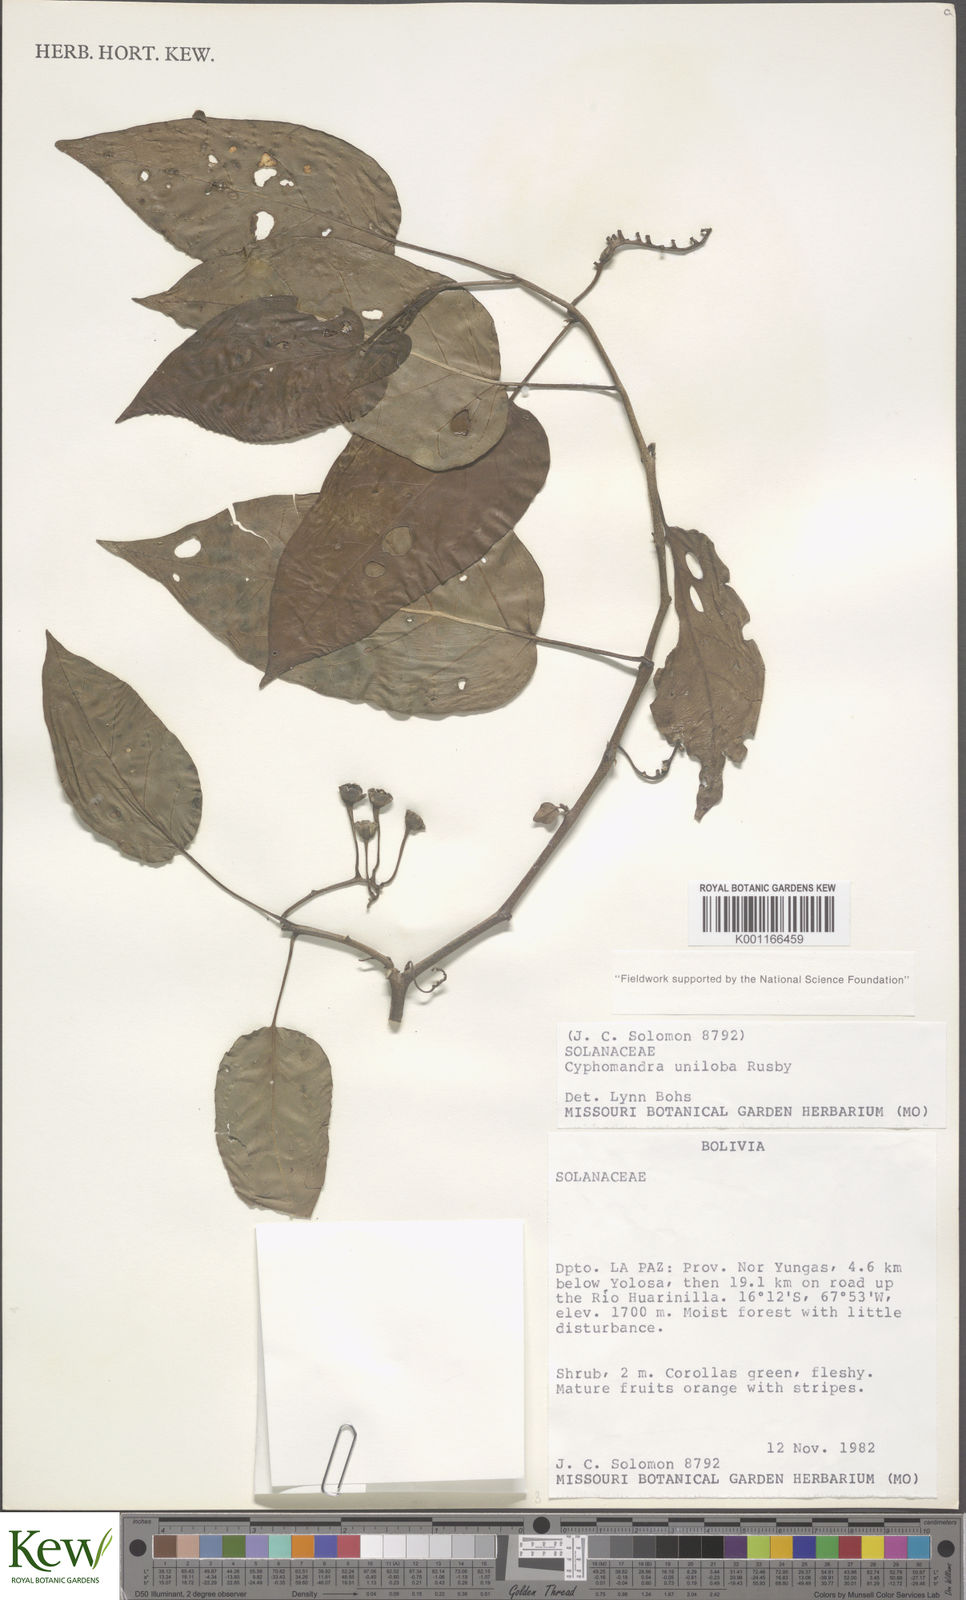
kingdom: Plantae
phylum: Tracheophyta
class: Magnoliopsida
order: Solanales
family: Solanaceae
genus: Solanum
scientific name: Solanum unilobum
